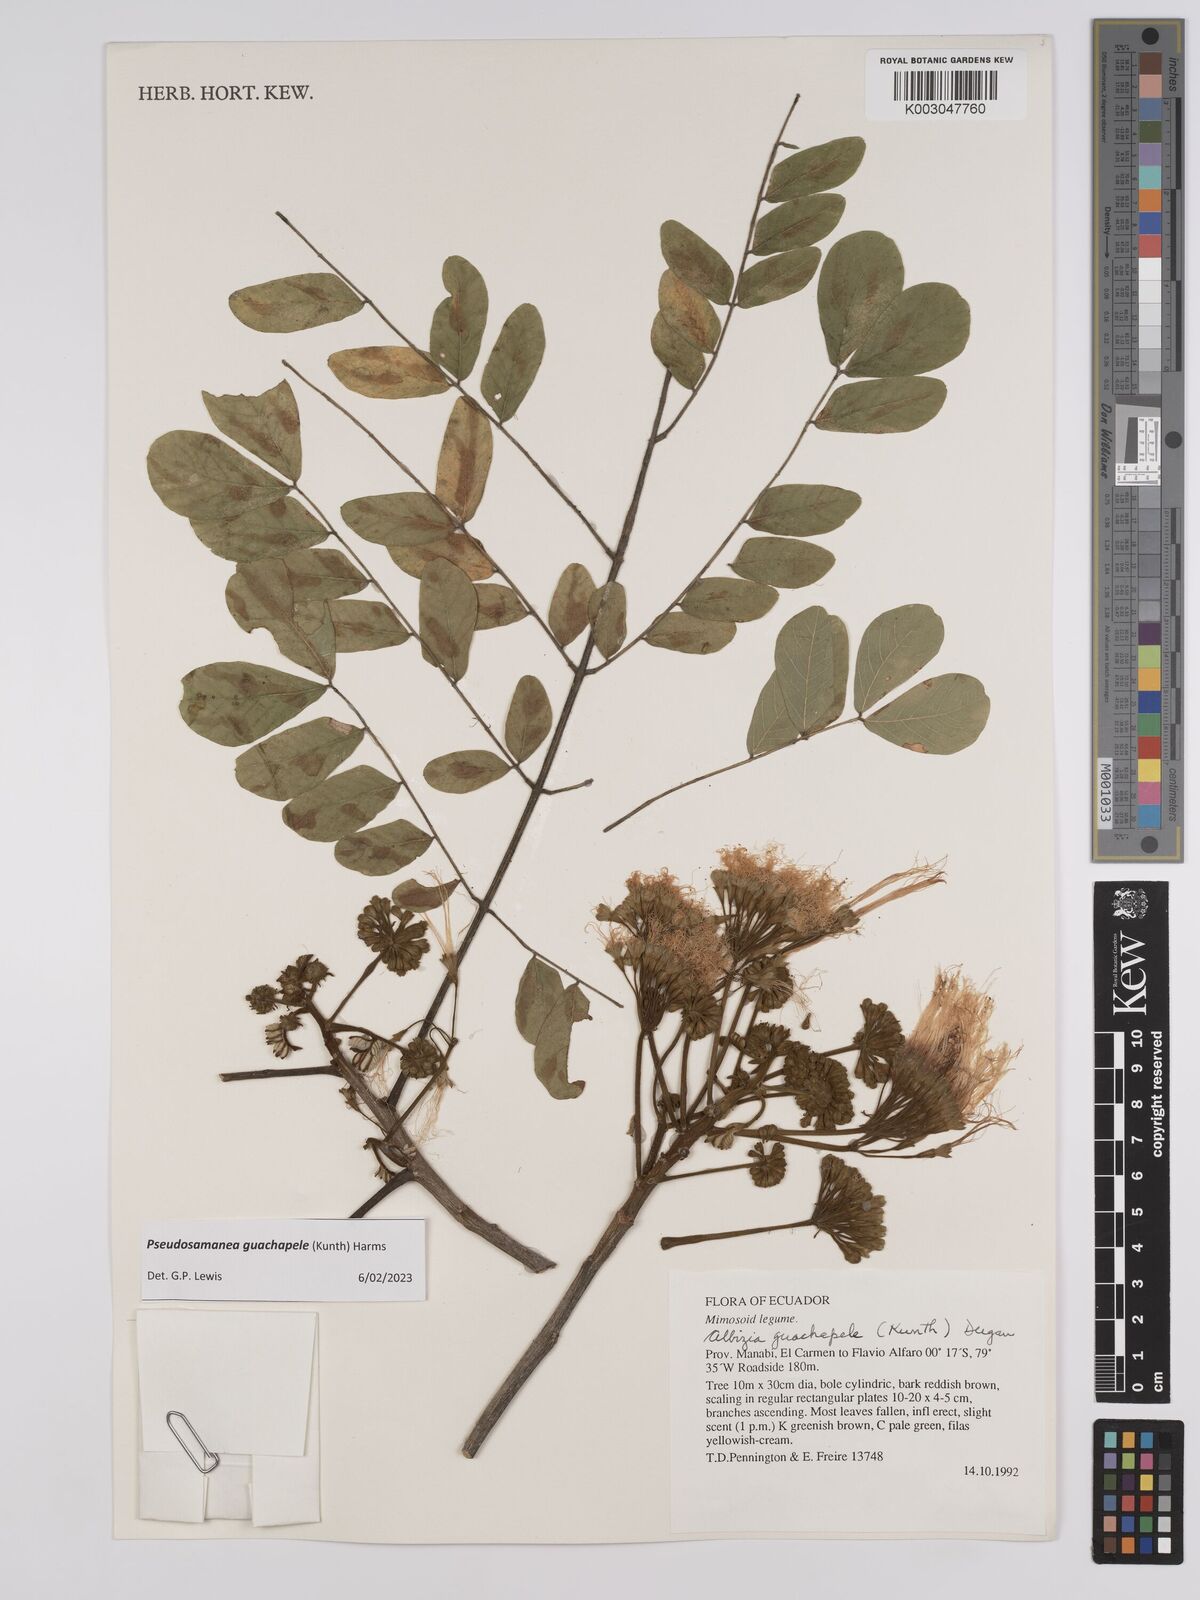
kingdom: Plantae
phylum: Tracheophyta
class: Magnoliopsida
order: Fabales
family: Fabaceae
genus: Pseudosamanea
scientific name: Pseudosamanea guachapele
